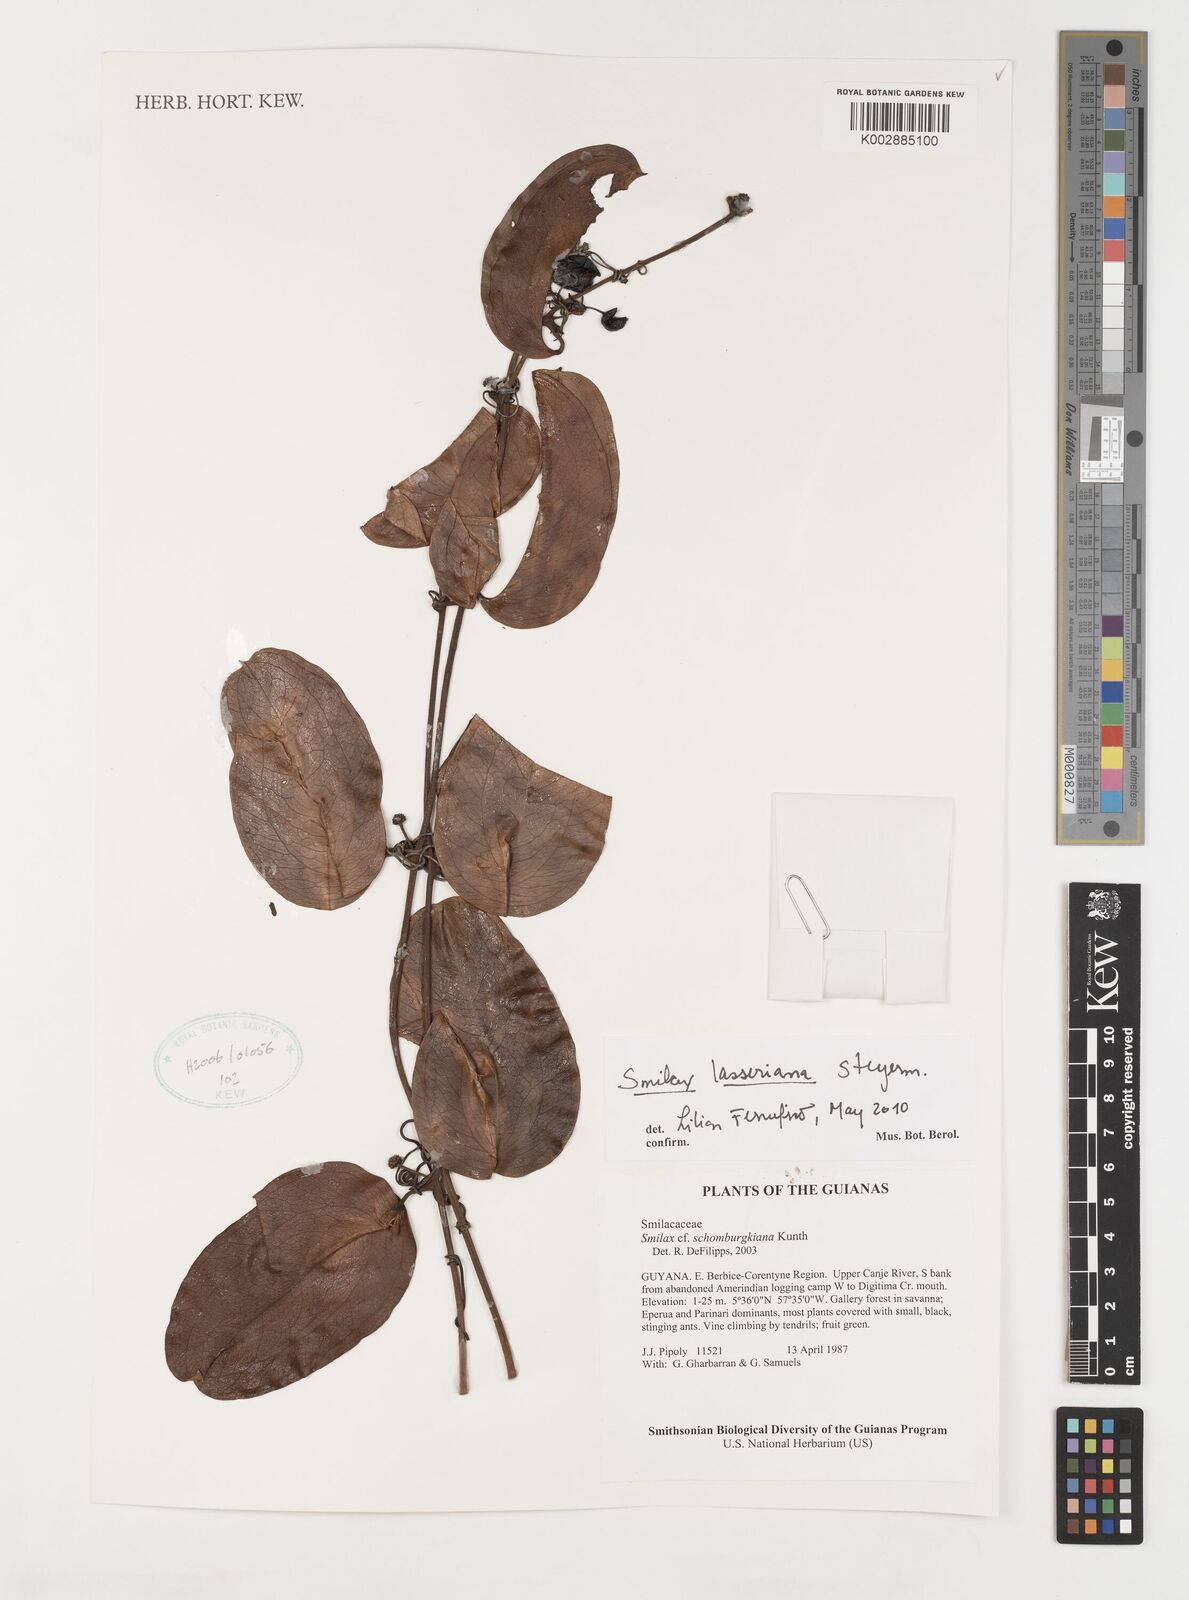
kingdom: Plantae
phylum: Tracheophyta
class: Liliopsida
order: Liliales
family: Smilacaceae
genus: Smilax
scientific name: Smilax domingensis
